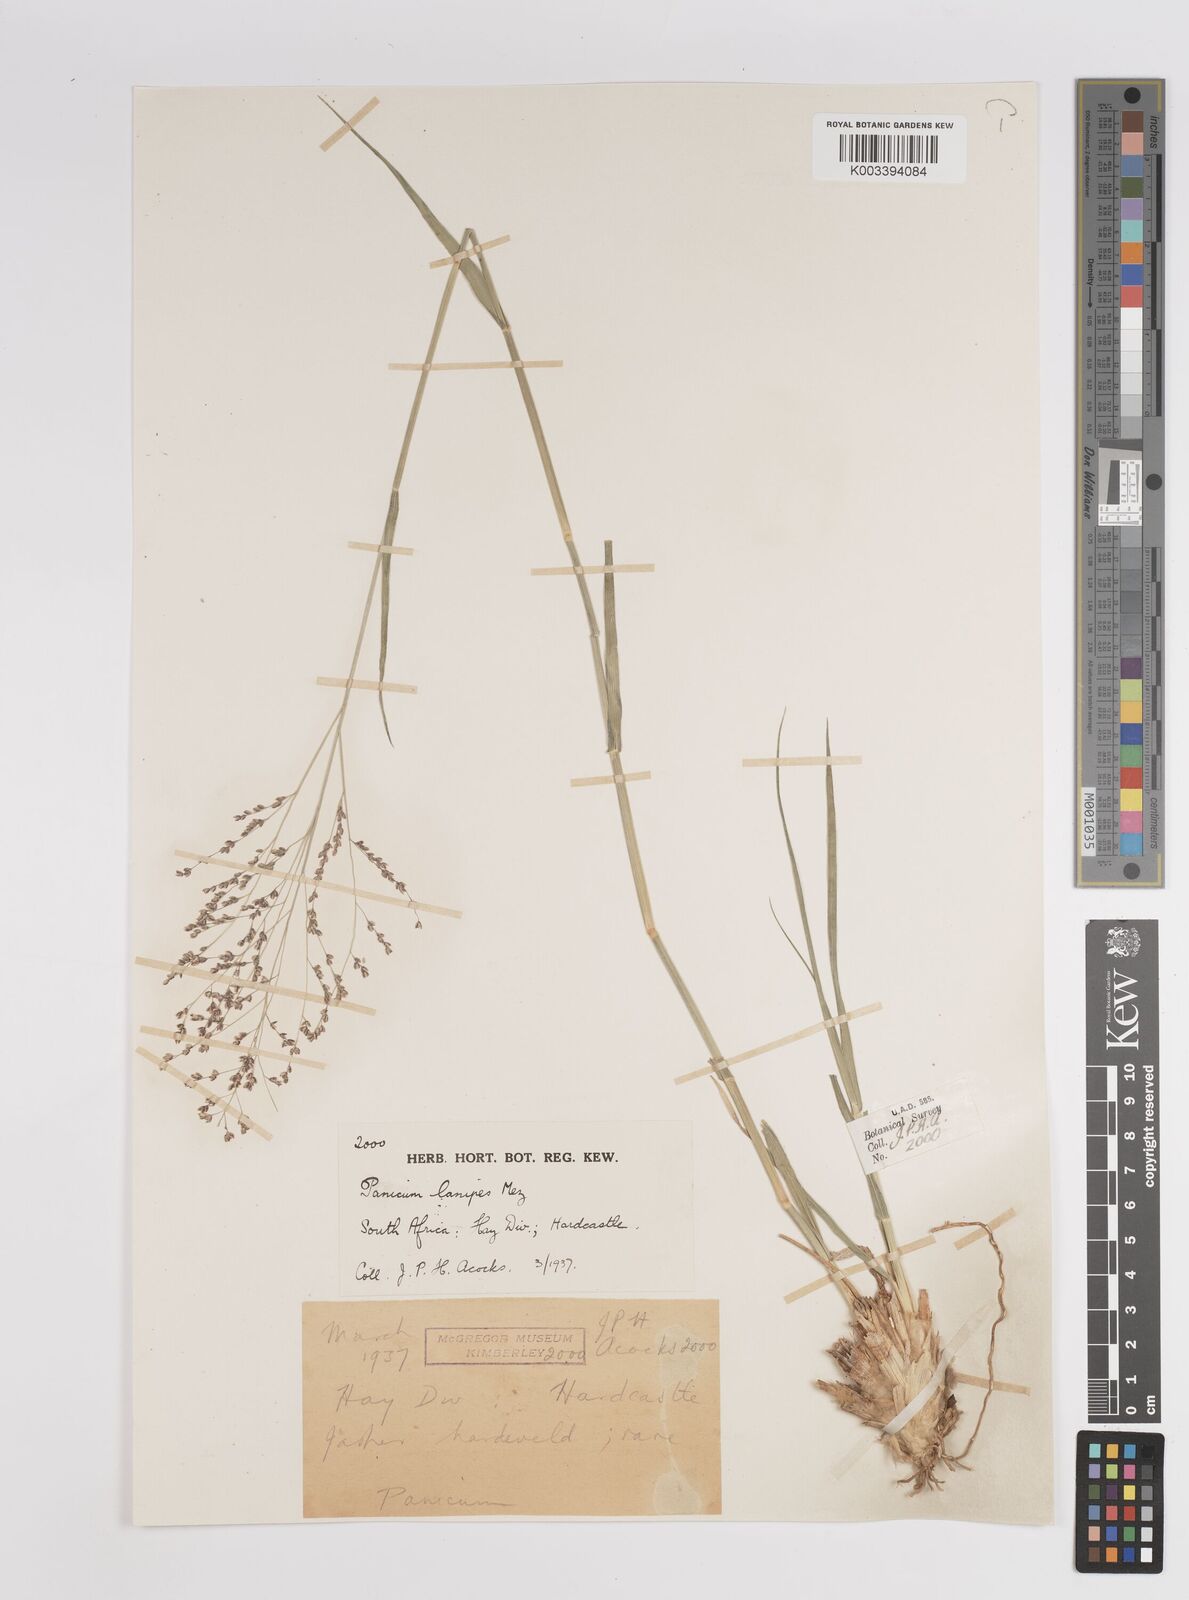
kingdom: Plantae
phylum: Tracheophyta
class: Liliopsida
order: Poales
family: Poaceae
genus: Panicum
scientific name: Panicum lanipes
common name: Wolvoet panicum
